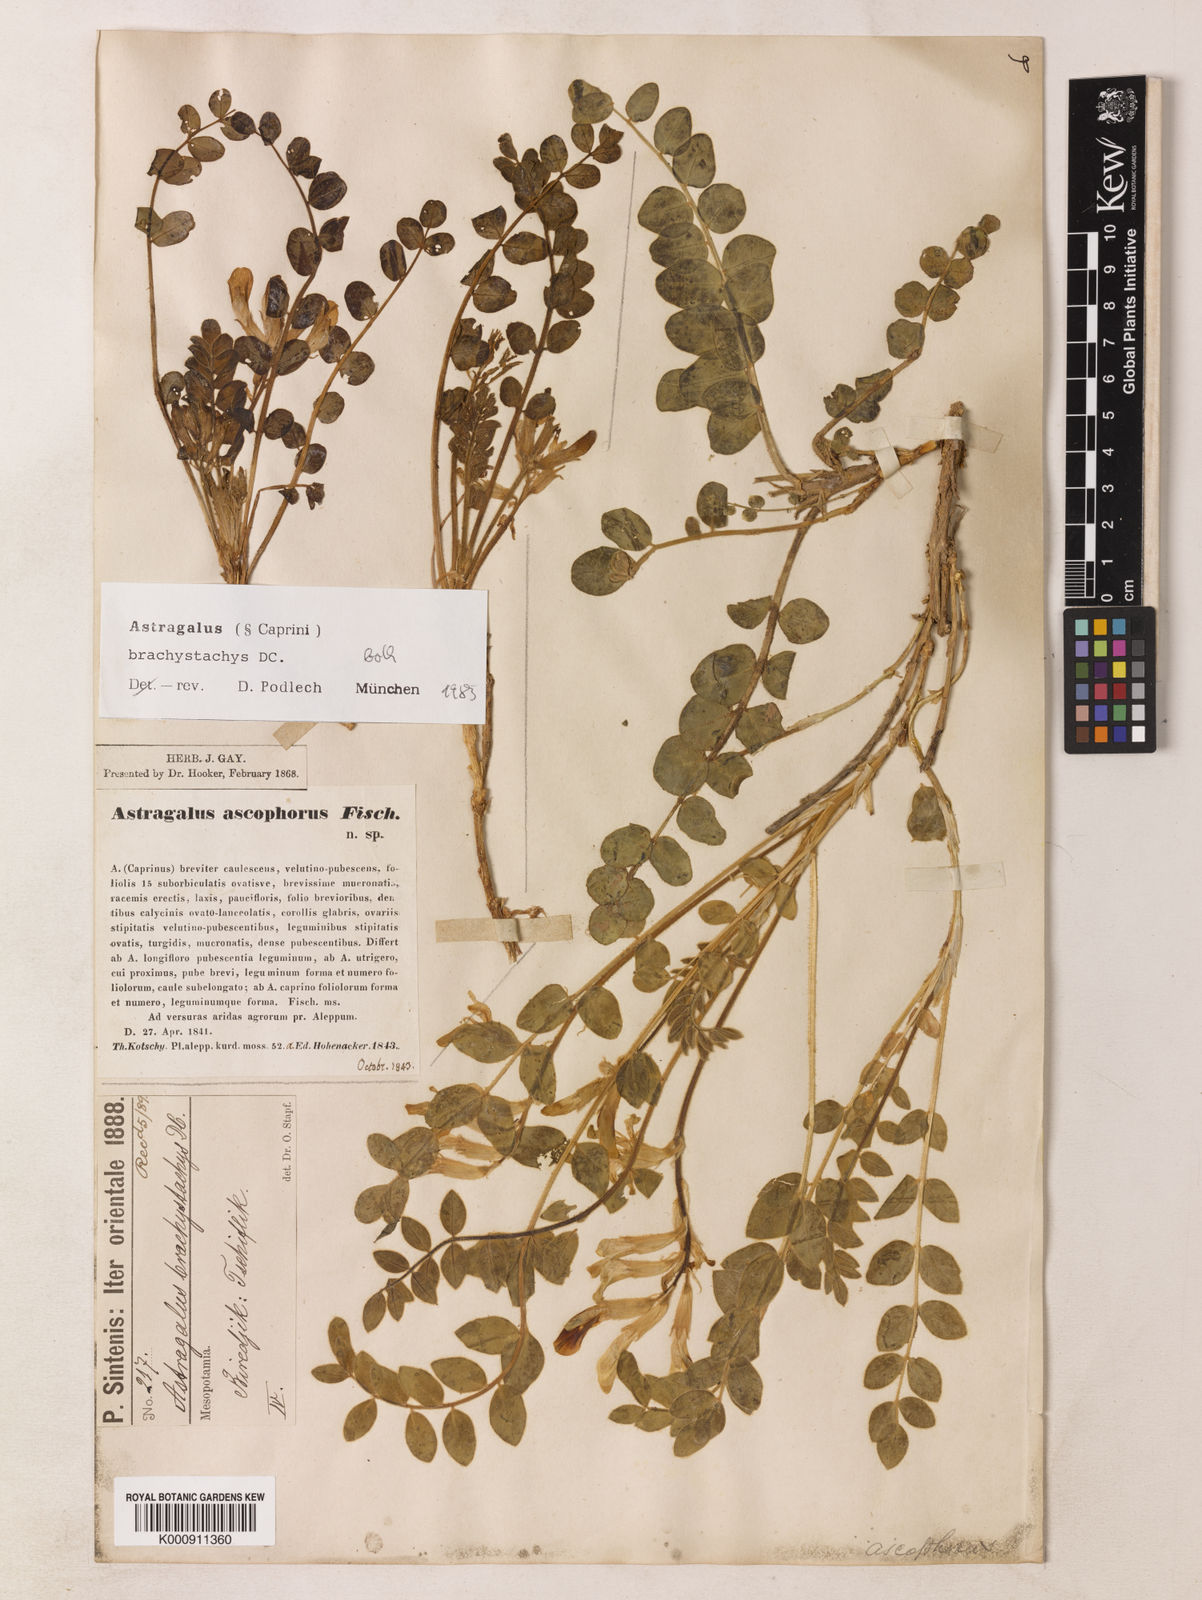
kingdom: Plantae
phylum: Tracheophyta
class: Magnoliopsida
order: Fabales
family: Fabaceae
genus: Astragalus
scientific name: Astragalus brachystachys
